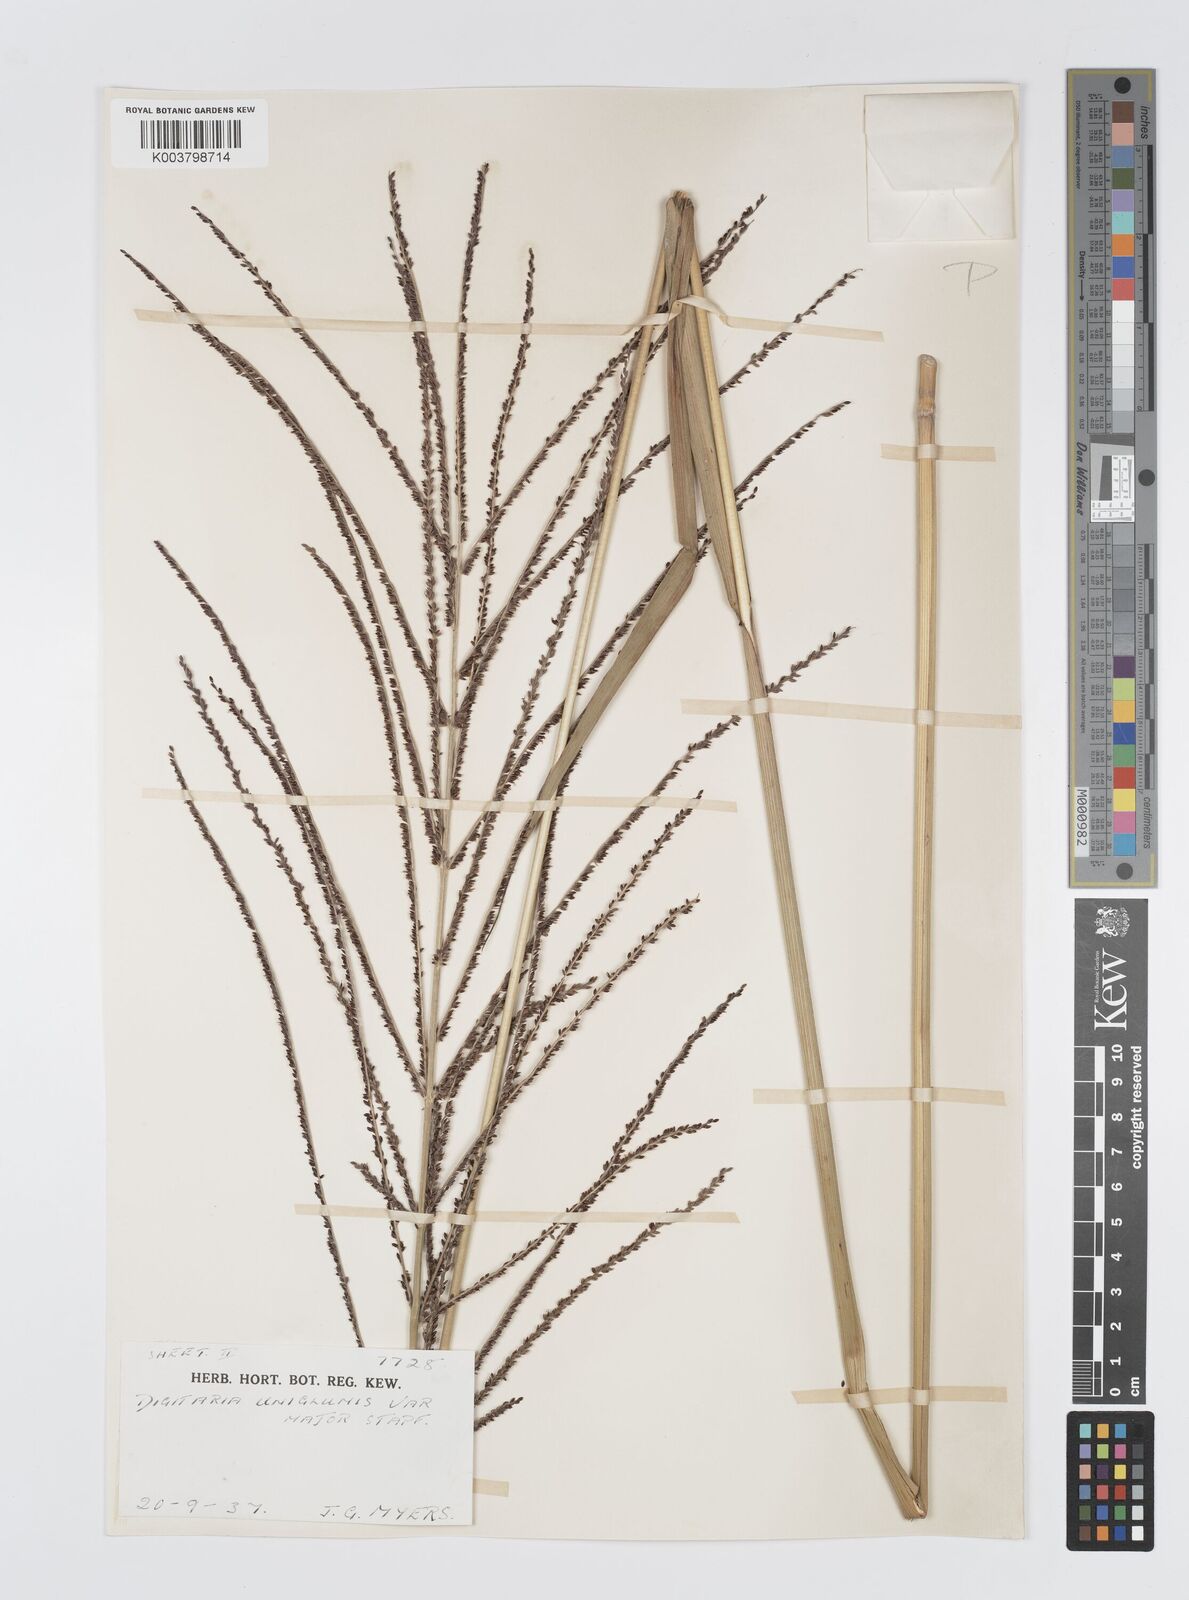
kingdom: Plantae
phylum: Tracheophyta
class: Liliopsida
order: Poales
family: Poaceae
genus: Digitaria
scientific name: Digitaria diagonalis
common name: Brown-seed finger grass
